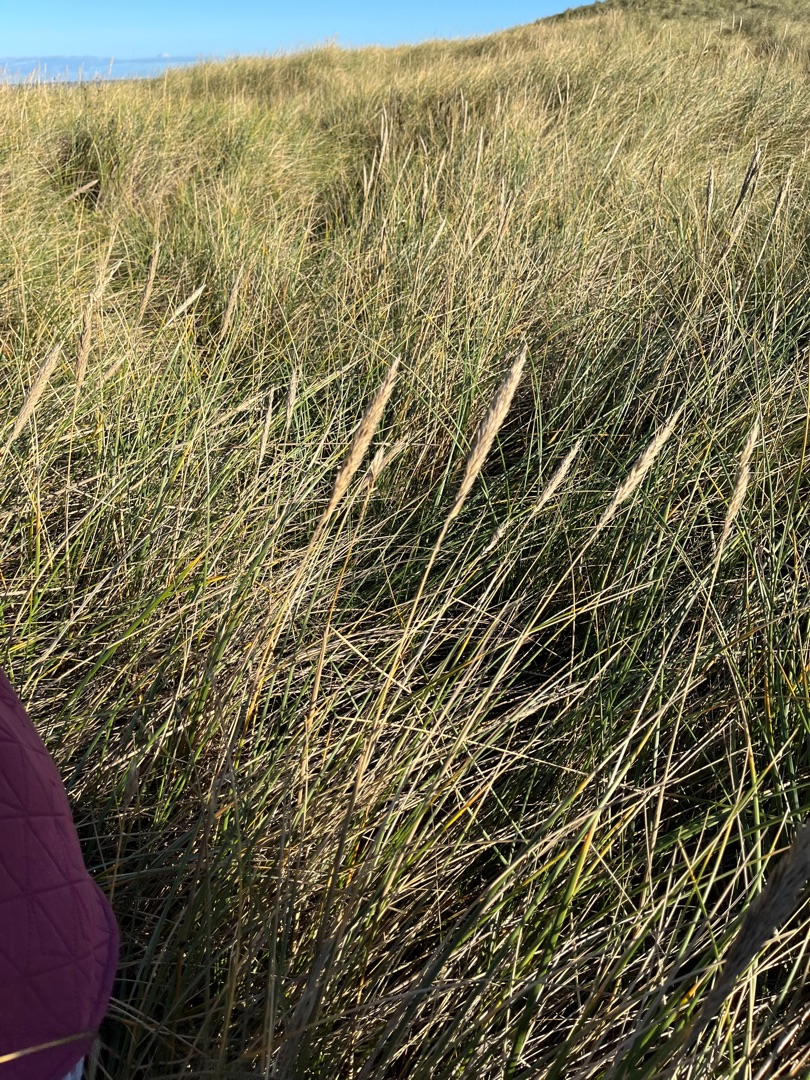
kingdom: Plantae
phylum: Tracheophyta
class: Liliopsida
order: Poales
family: Poaceae
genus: Calamagrostis
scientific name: Calamagrostis arenaria
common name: Sand-hjælme
